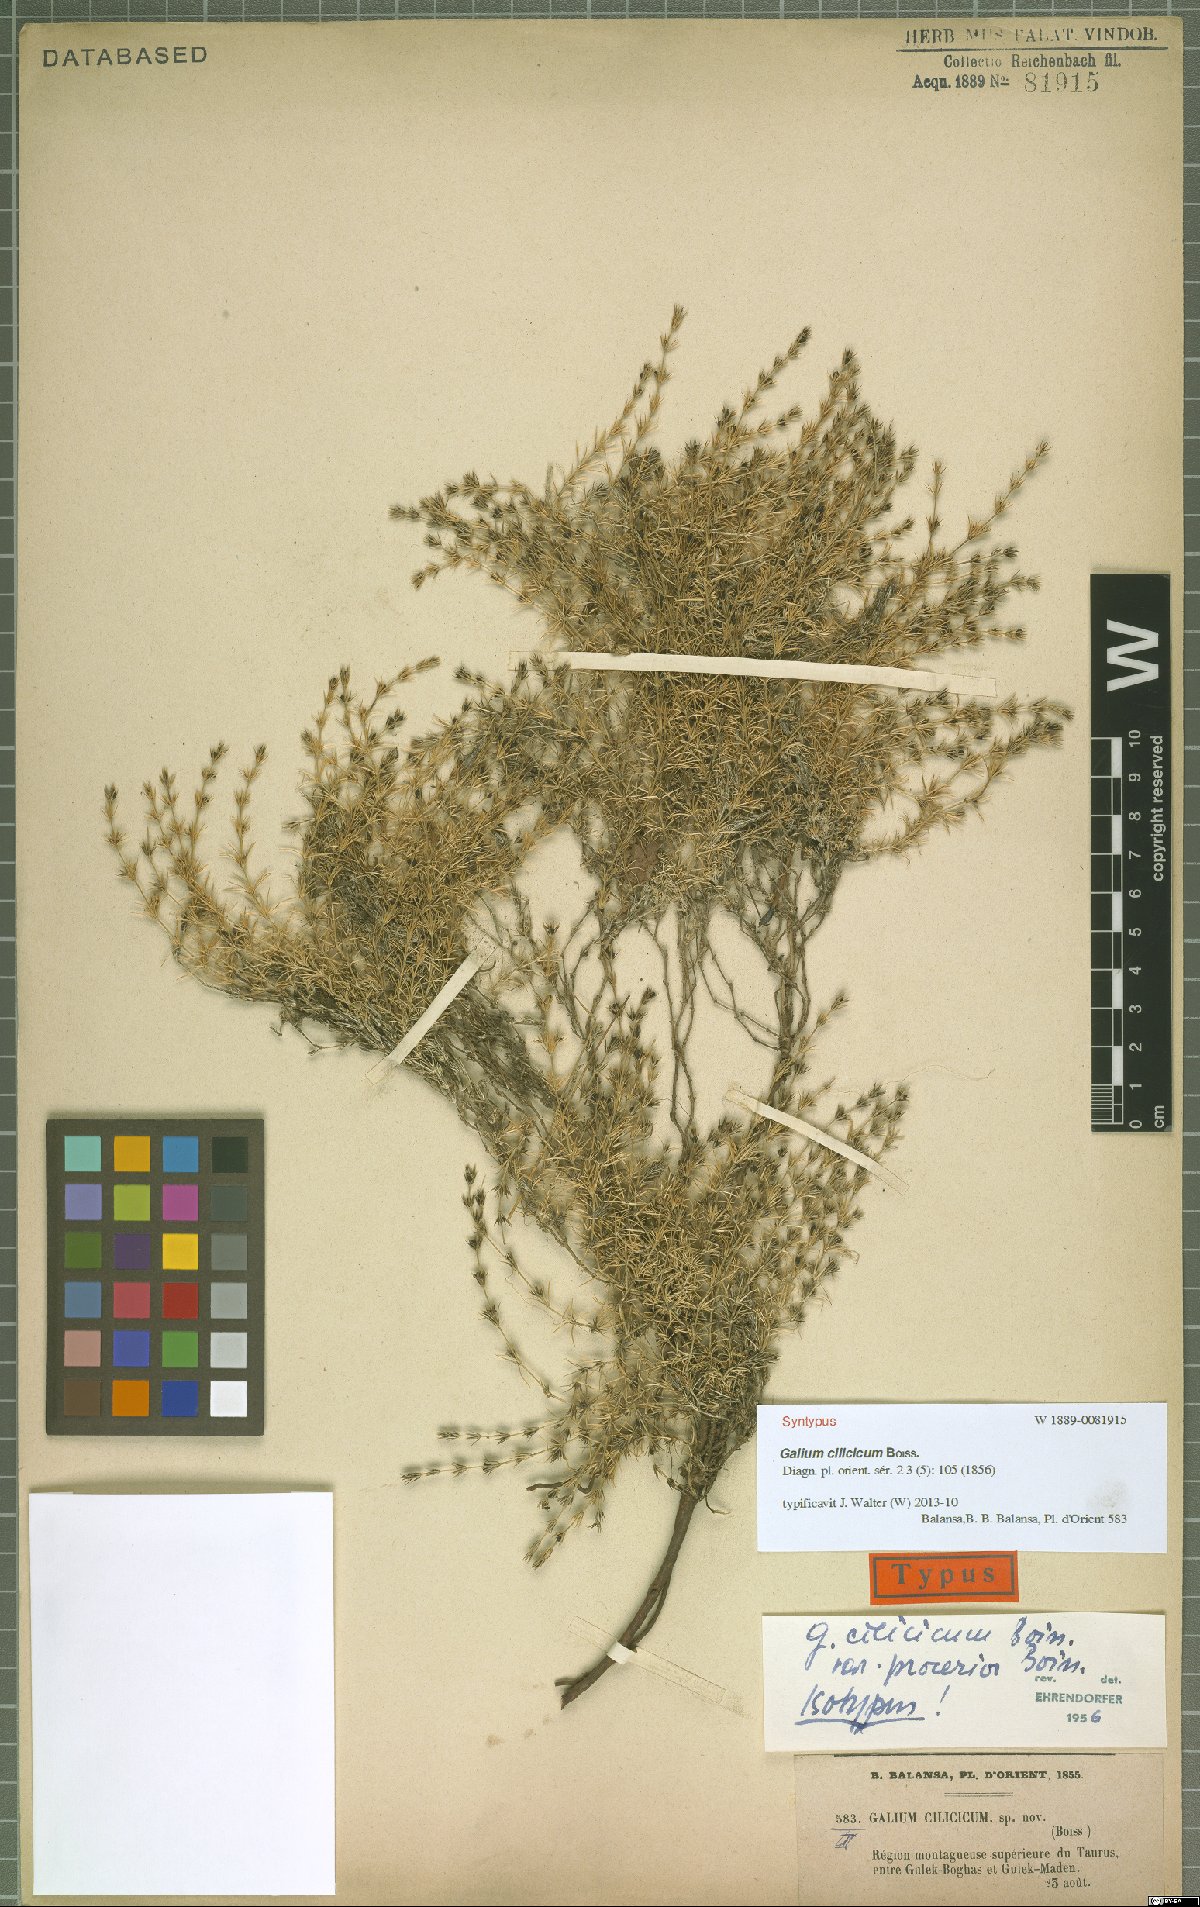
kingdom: Plantae
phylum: Tracheophyta
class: Magnoliopsida
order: Gentianales
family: Rubiaceae
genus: Galium
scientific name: Galium cilicicum
